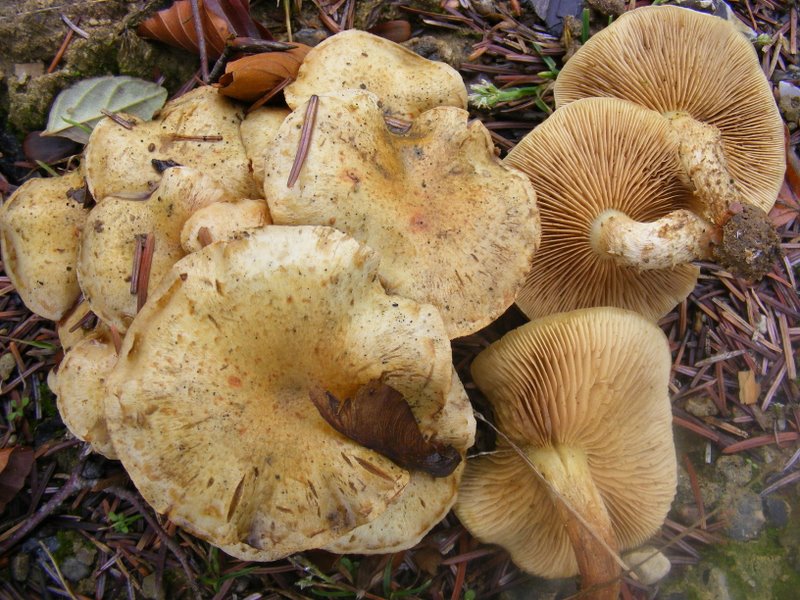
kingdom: Fungi
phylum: Basidiomycota
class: Agaricomycetes
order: Agaricales
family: Strophariaceae
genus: Pholiota
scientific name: Pholiota gummosa
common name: grøngul skælhat
